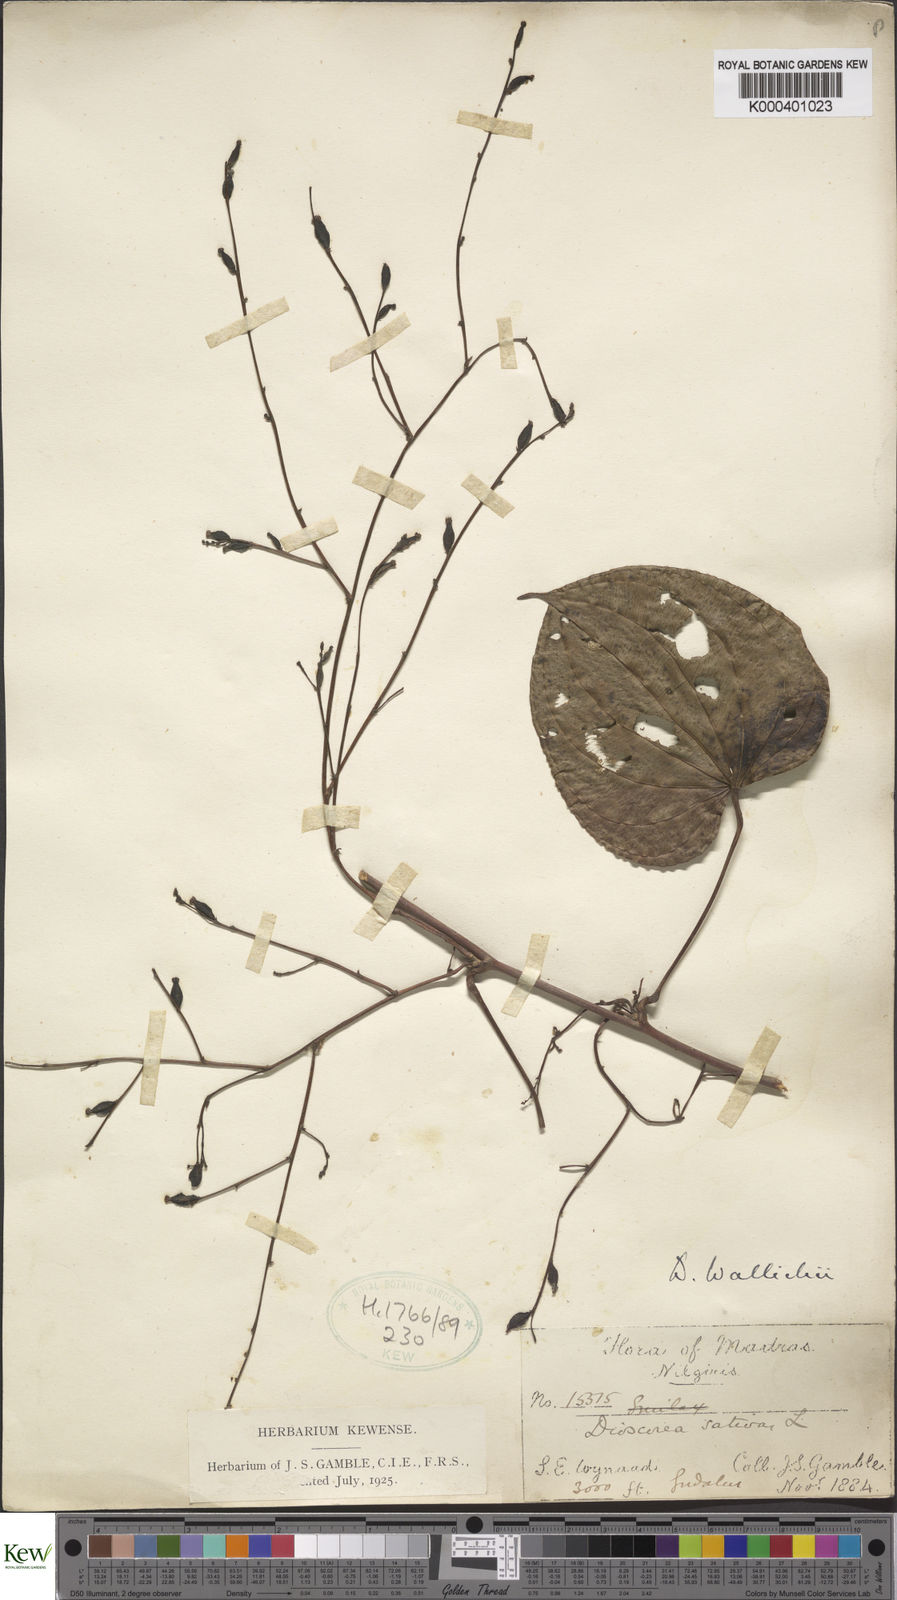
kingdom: Plantae
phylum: Tracheophyta
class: Liliopsida
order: Dioscoreales
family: Dioscoreaceae
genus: Dioscorea
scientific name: Dioscorea wallichii
